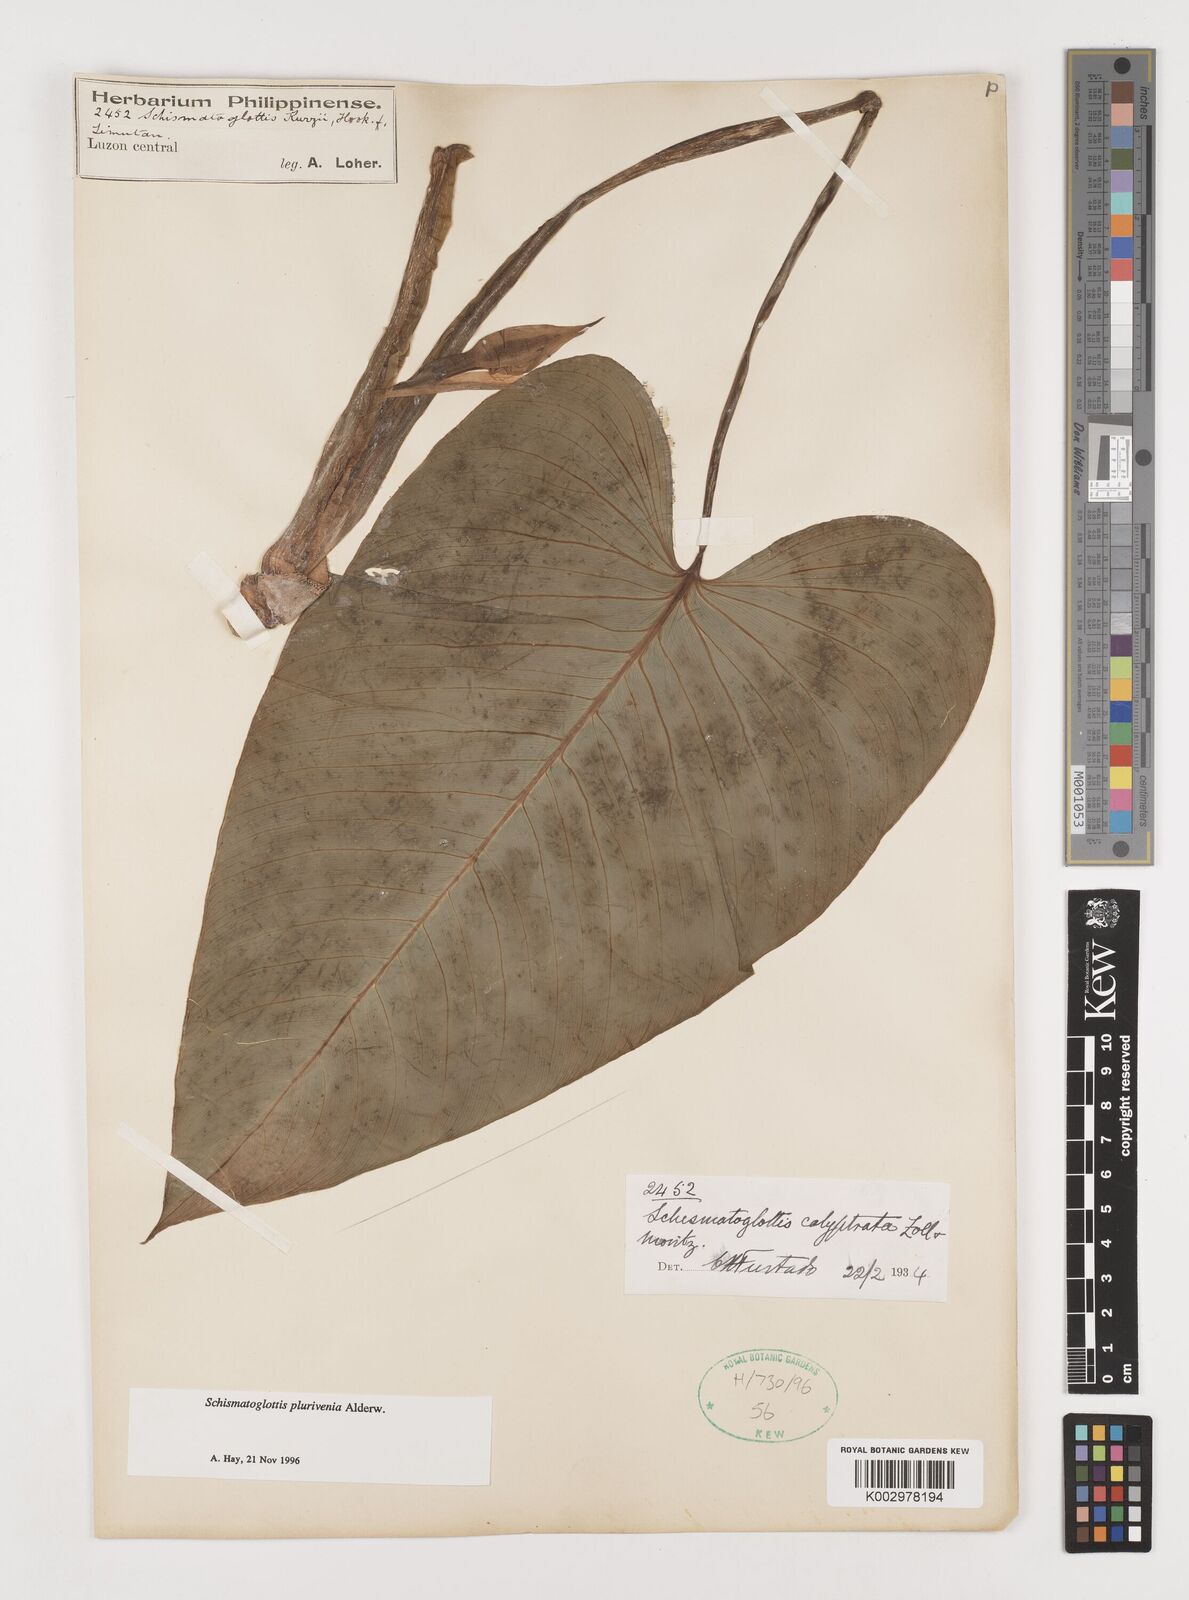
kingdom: Plantae
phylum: Tracheophyta
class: Liliopsida
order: Alismatales
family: Araceae
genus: Schismatoglottis
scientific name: Schismatoglottis plurivenia
